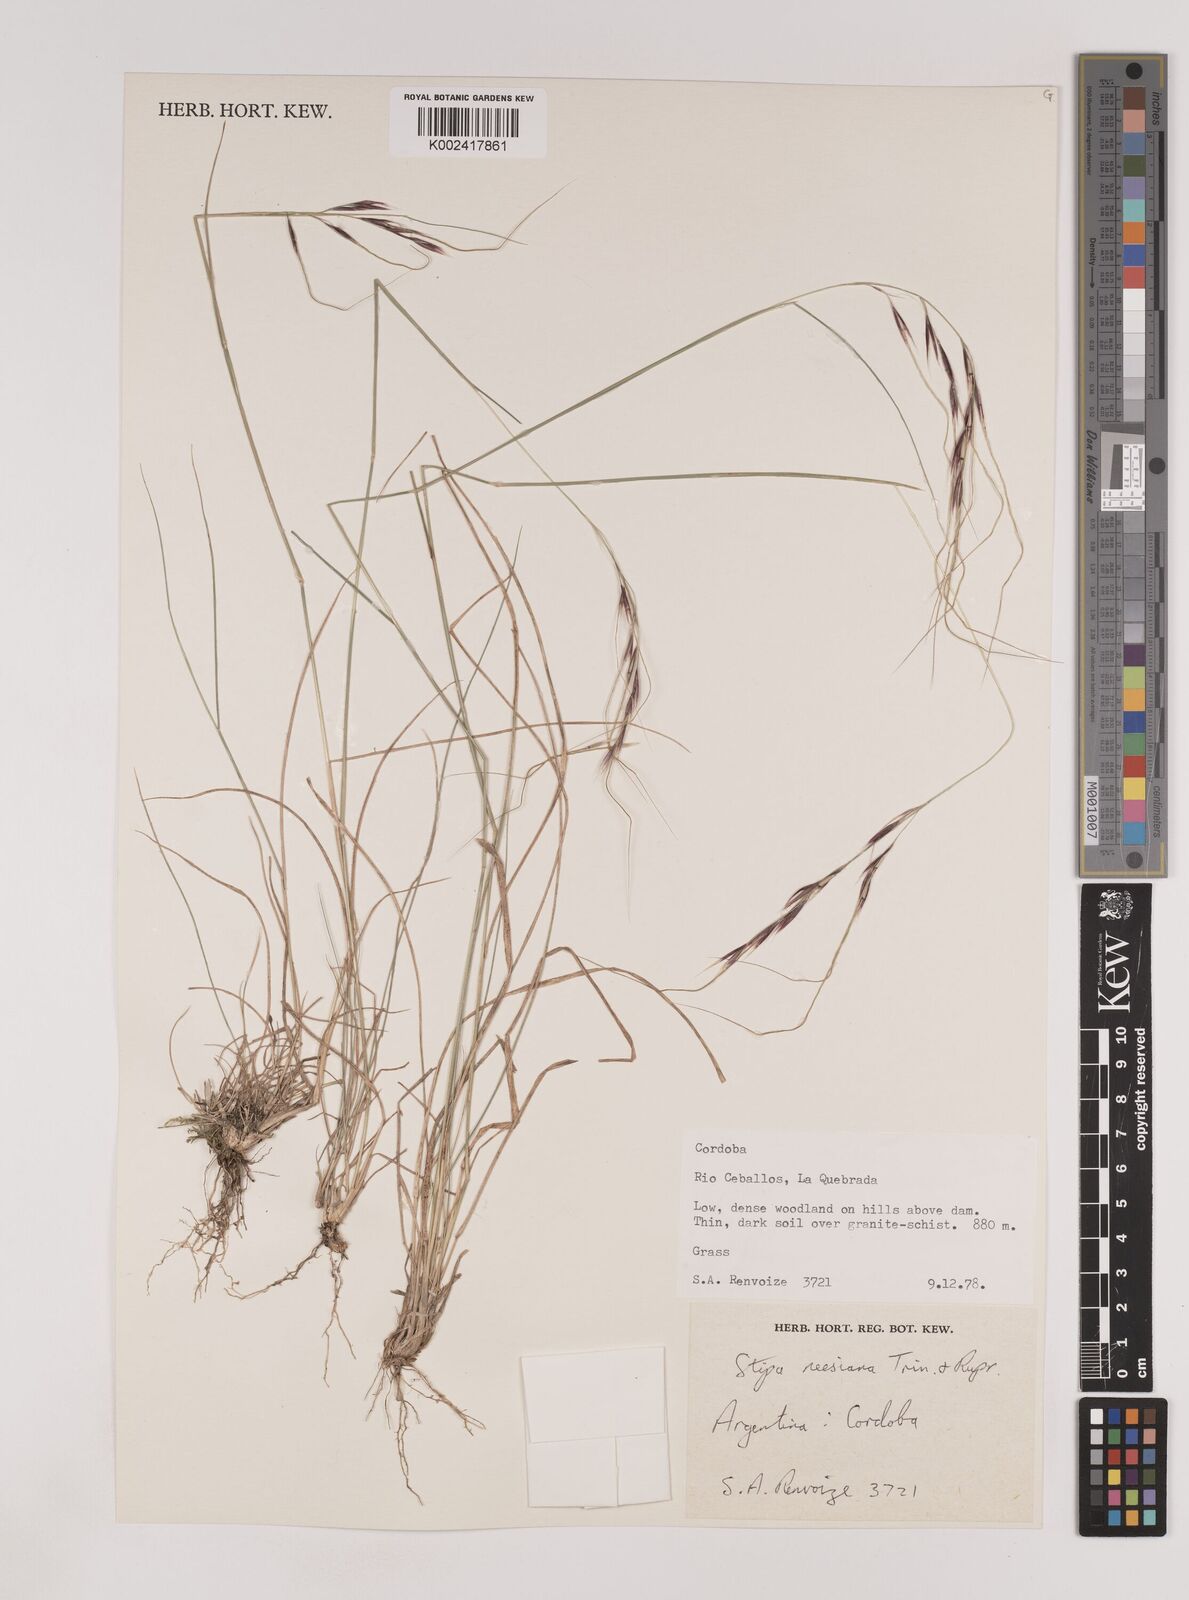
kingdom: Plantae
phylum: Tracheophyta
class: Liliopsida
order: Poales
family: Poaceae
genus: Nassella
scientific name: Nassella neesiana
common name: American needle-grass
